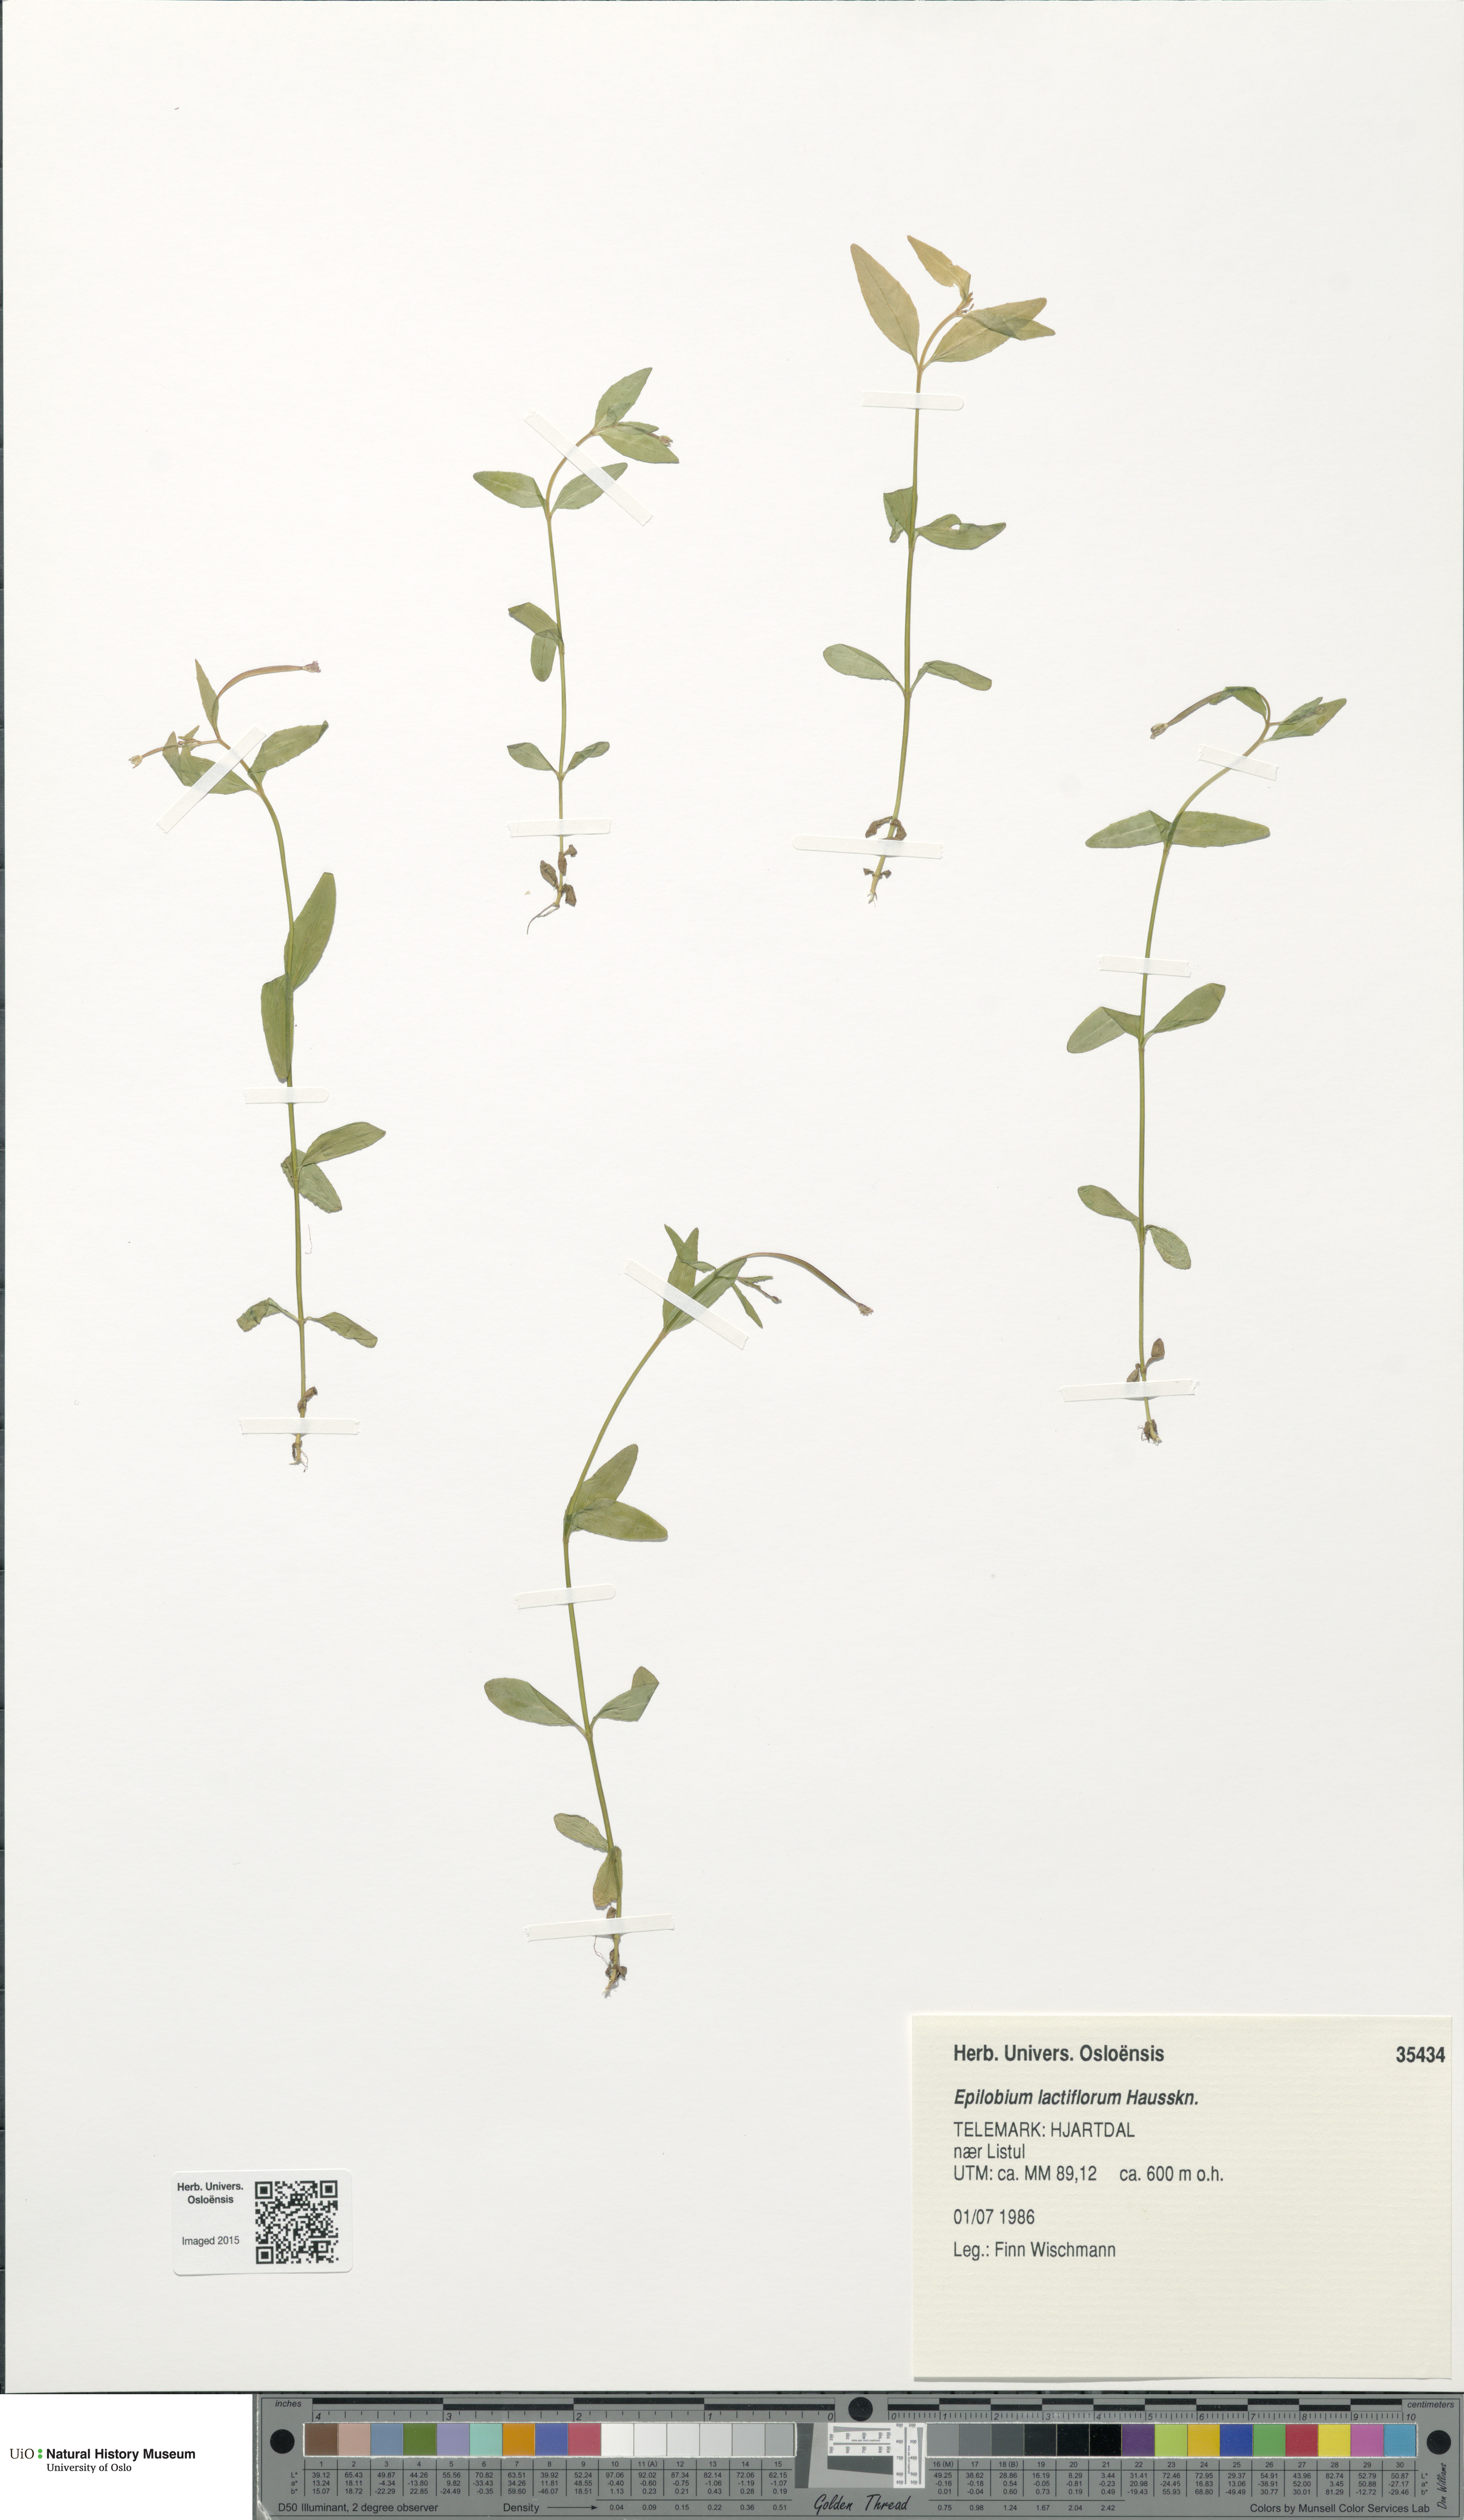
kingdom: Plantae
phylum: Tracheophyta
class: Magnoliopsida
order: Myrtales
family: Onagraceae
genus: Epilobium
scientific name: Epilobium lactiflorum
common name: Milkflower willowherb
